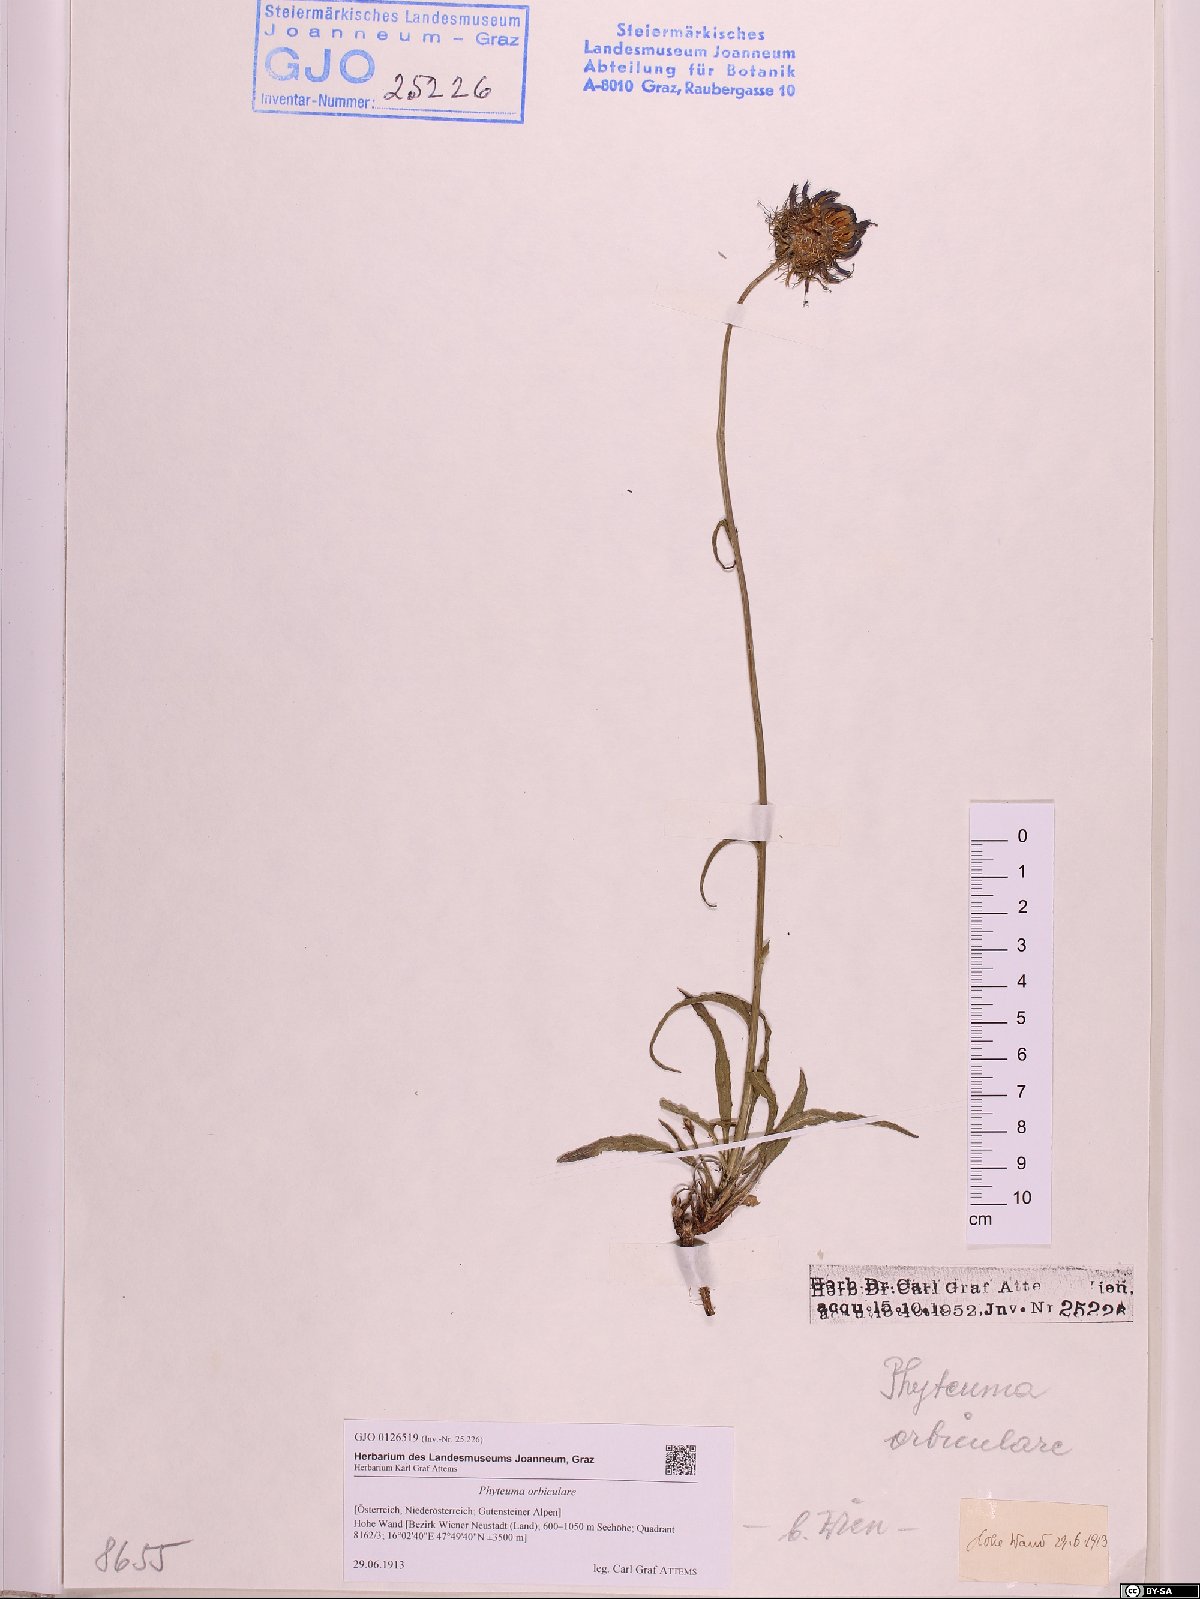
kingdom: Plantae
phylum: Tracheophyta
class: Magnoliopsida
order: Asterales
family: Campanulaceae
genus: Phyteuma
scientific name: Phyteuma orbiculare
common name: Round-headed rampion
